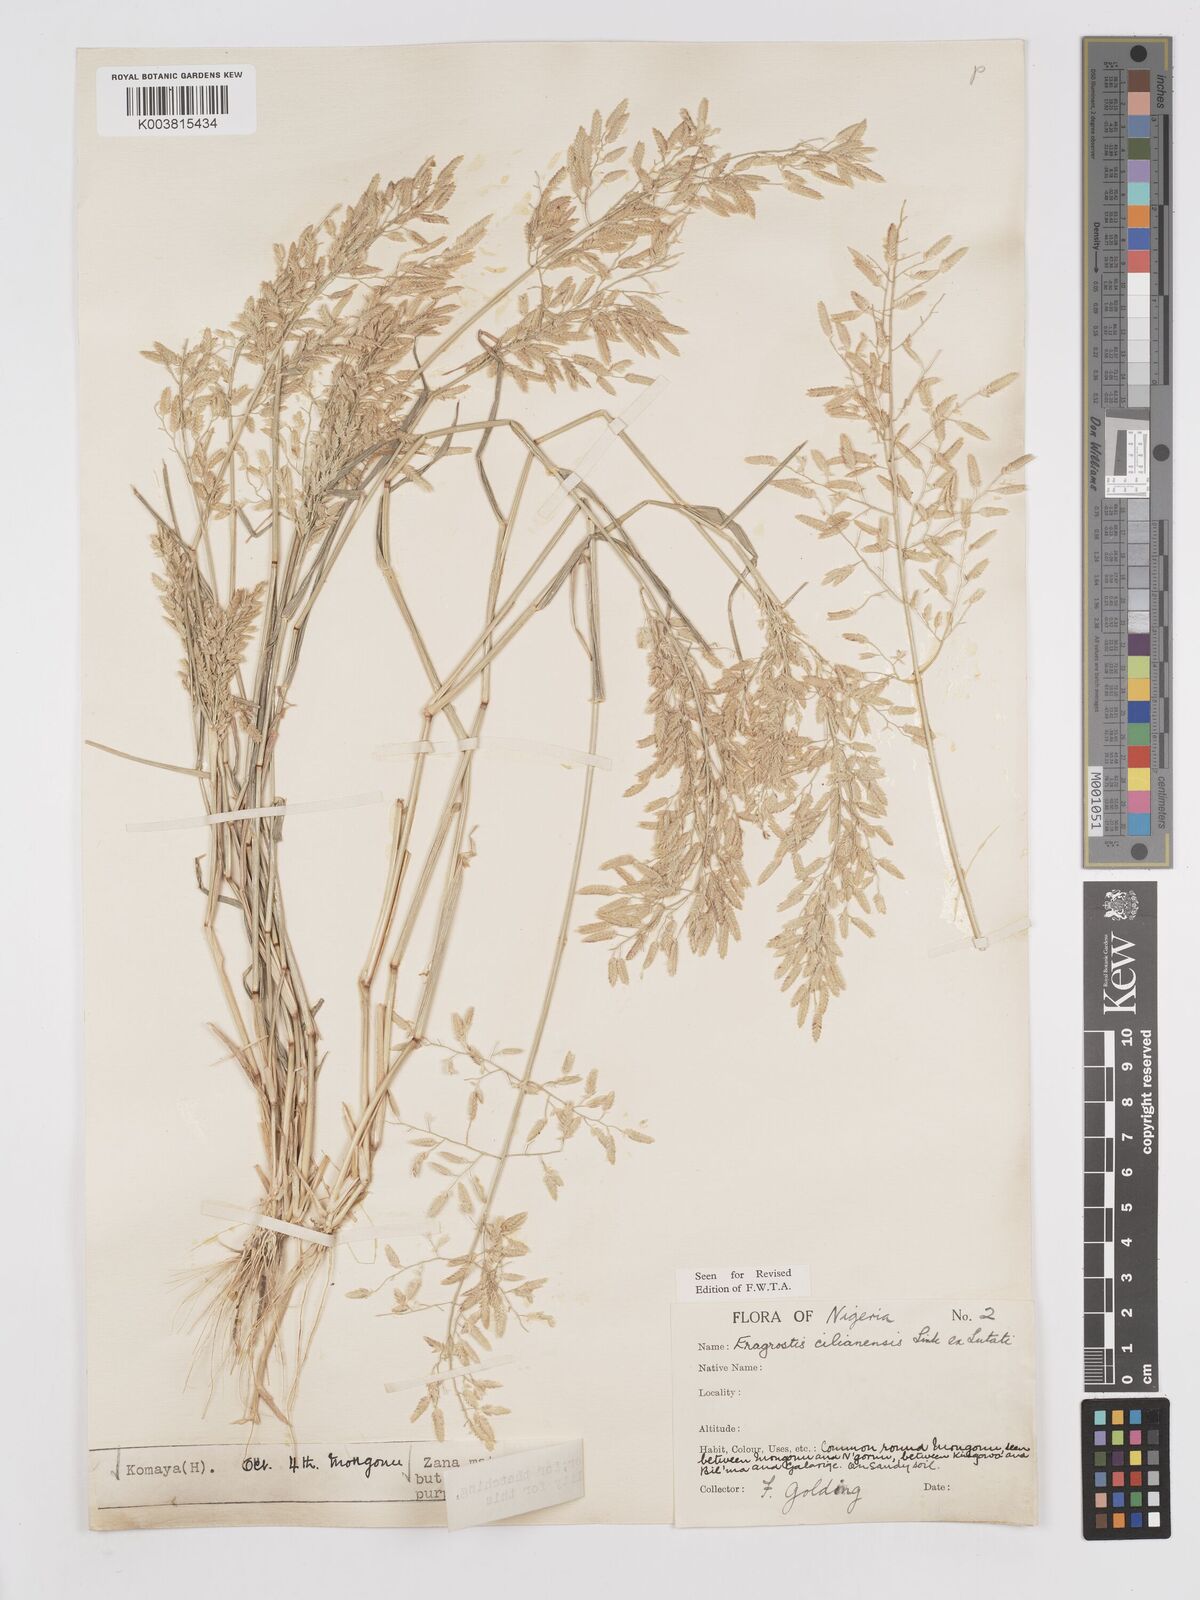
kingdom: Plantae
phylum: Tracheophyta
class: Liliopsida
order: Poales
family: Poaceae
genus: Eragrostis
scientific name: Eragrostis cilianensis
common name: Stinkgrass
